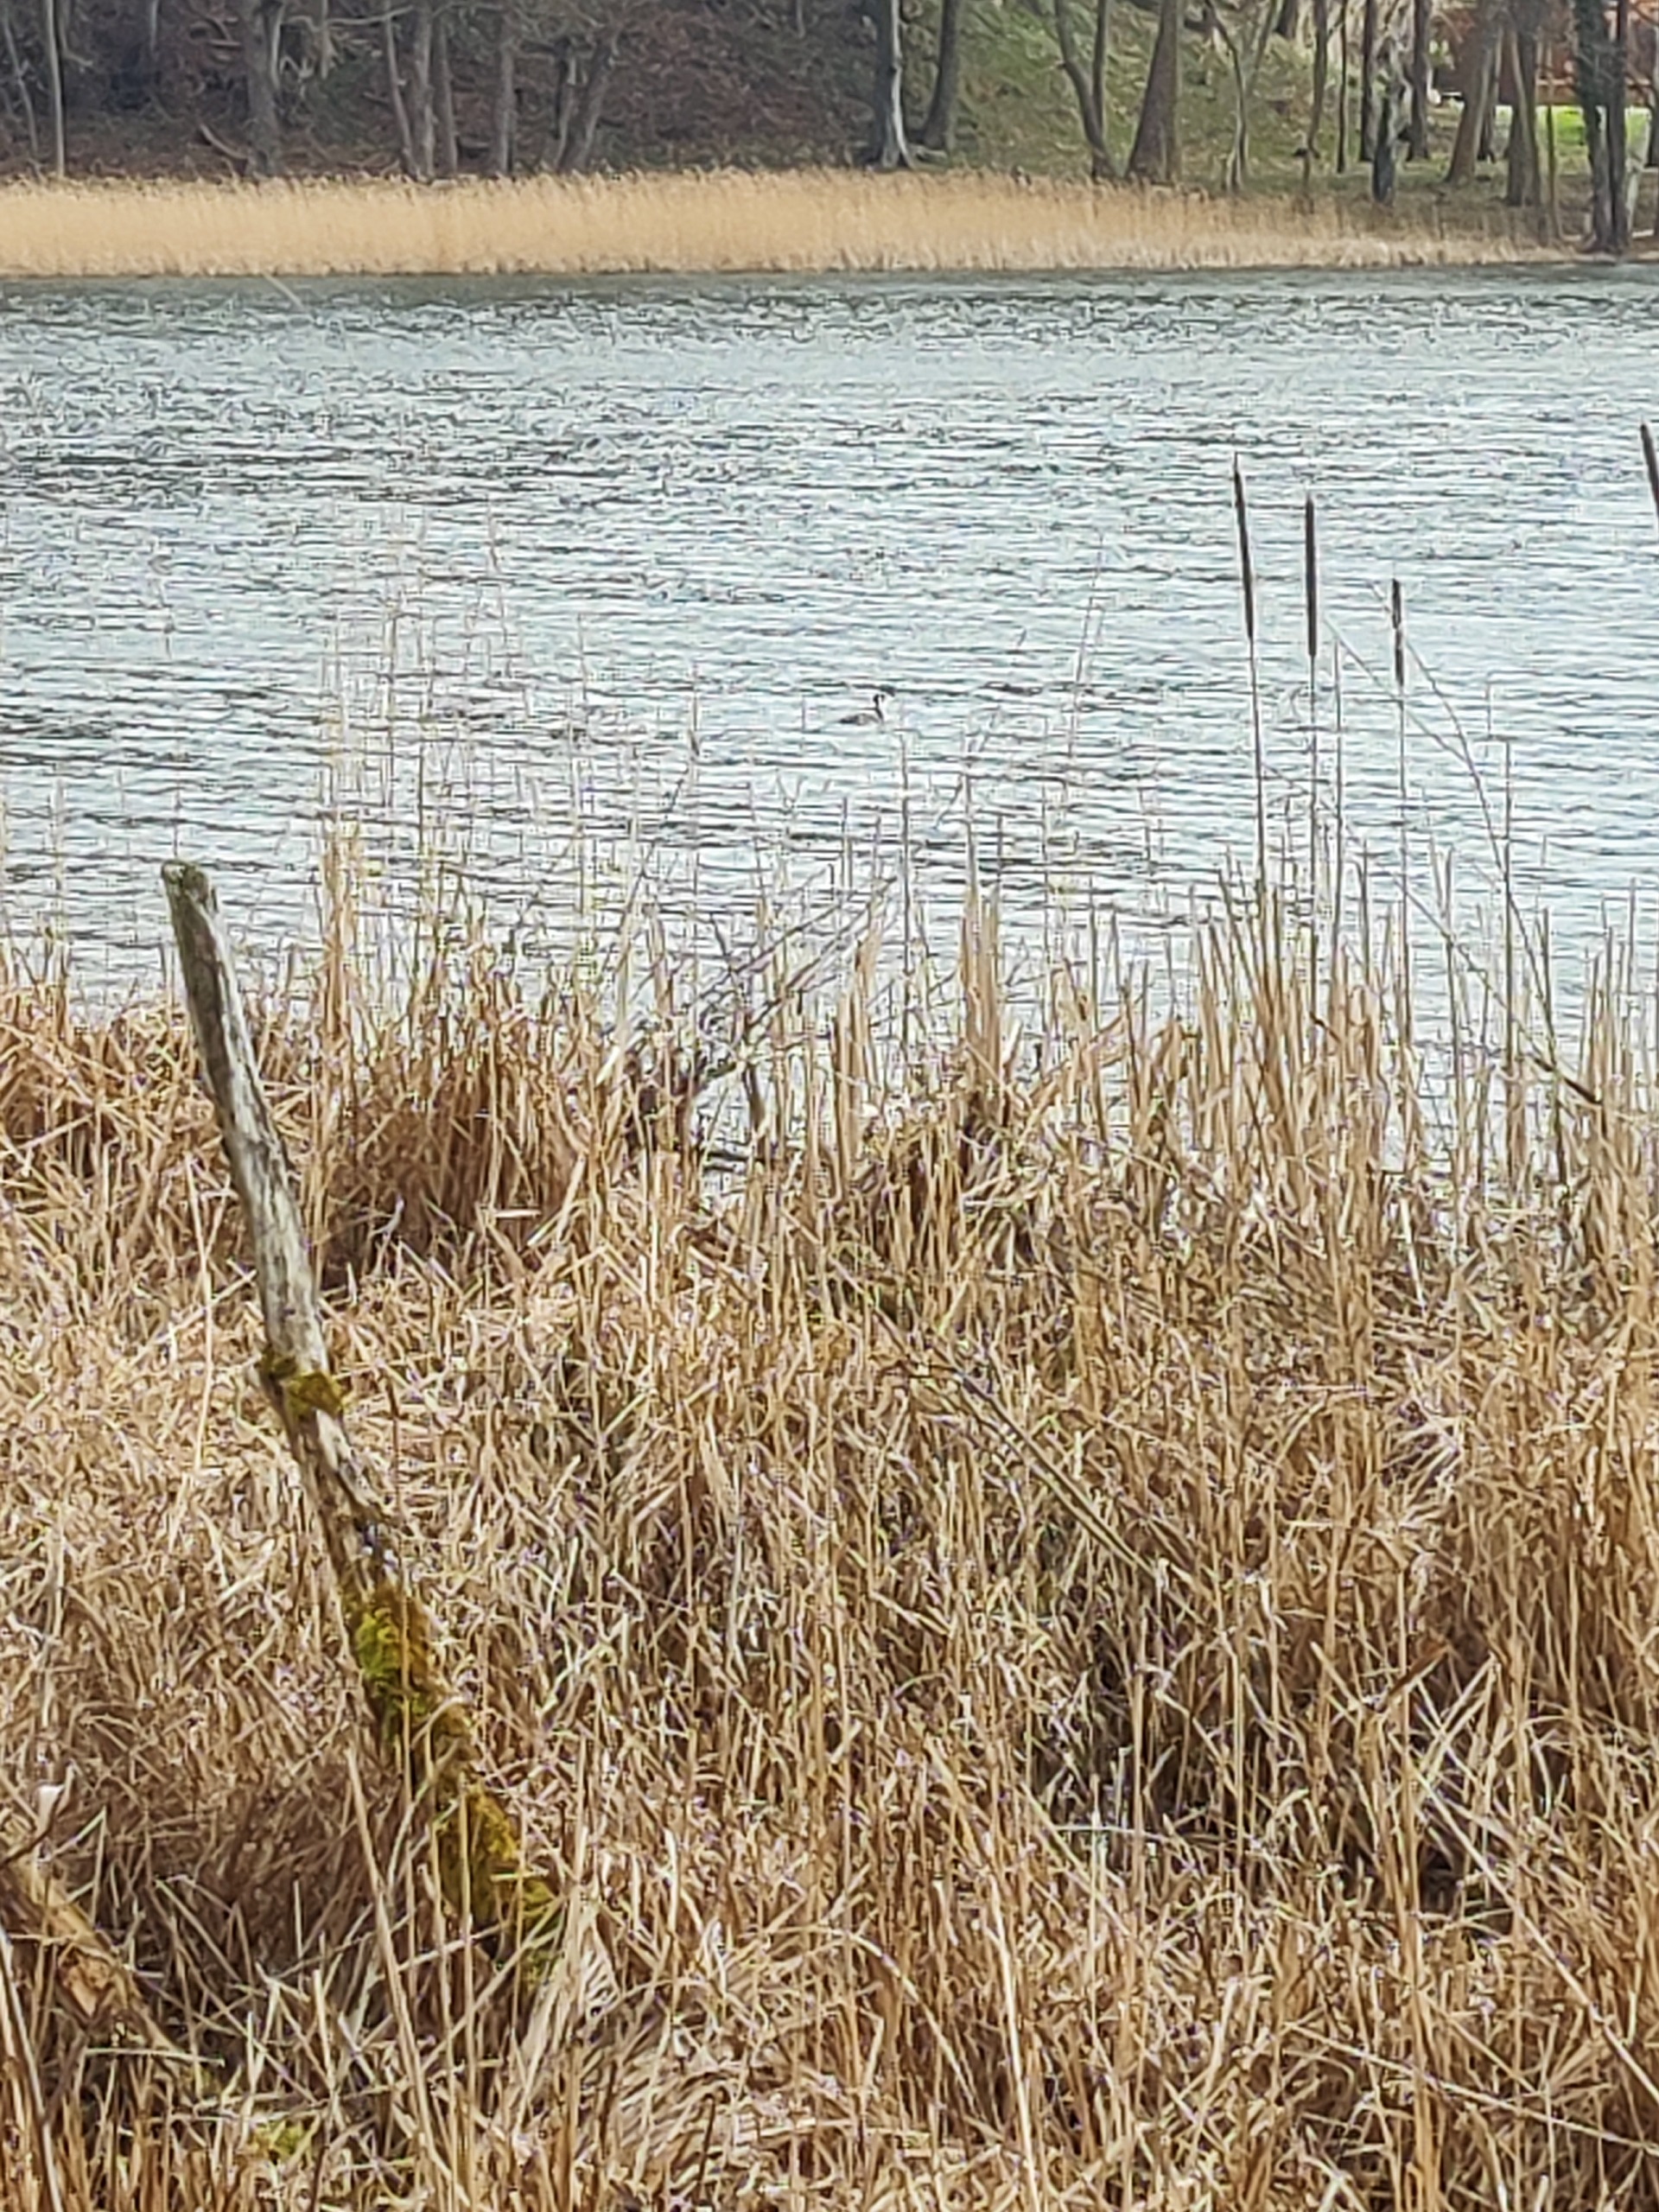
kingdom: Animalia
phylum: Chordata
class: Aves
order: Podicipediformes
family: Podicipedidae
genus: Podiceps
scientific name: Podiceps cristatus
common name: Toppet lappedykker
